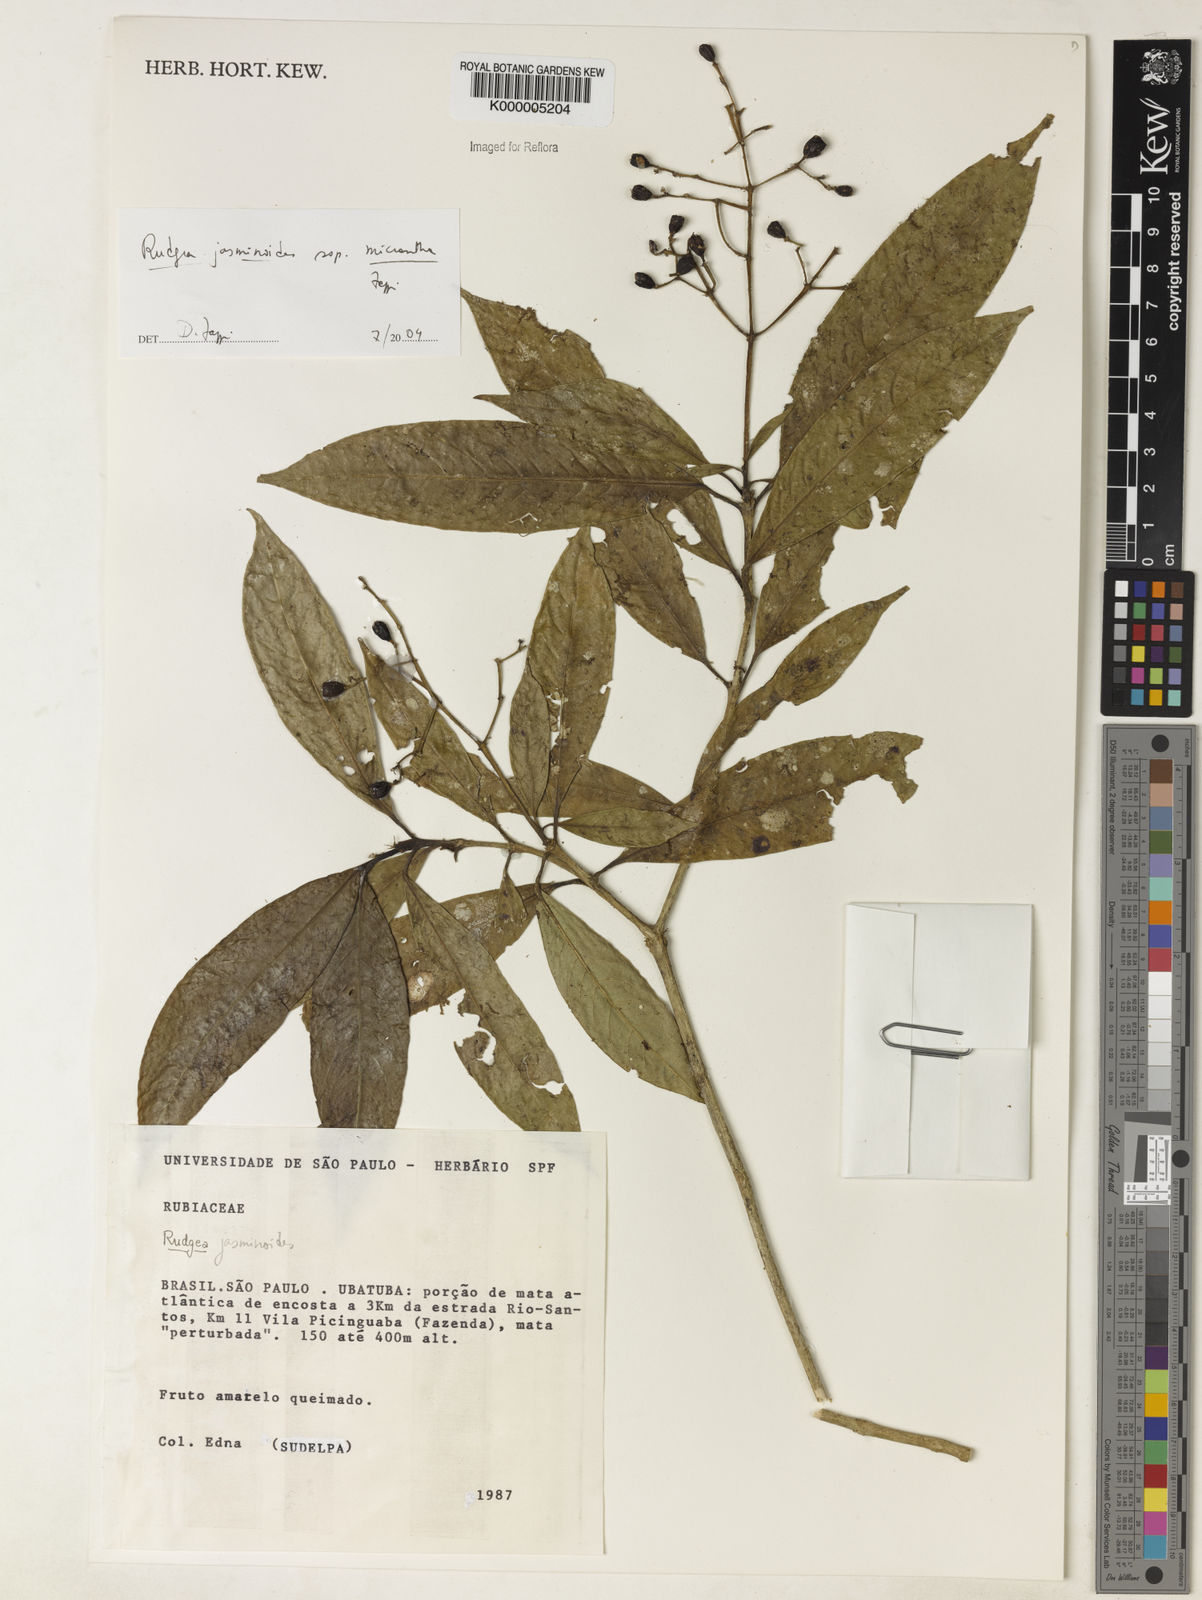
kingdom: Plantae
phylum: Tracheophyta
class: Magnoliopsida
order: Gentianales
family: Rubiaceae
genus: Rudgea
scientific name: Rudgea jasminoides
